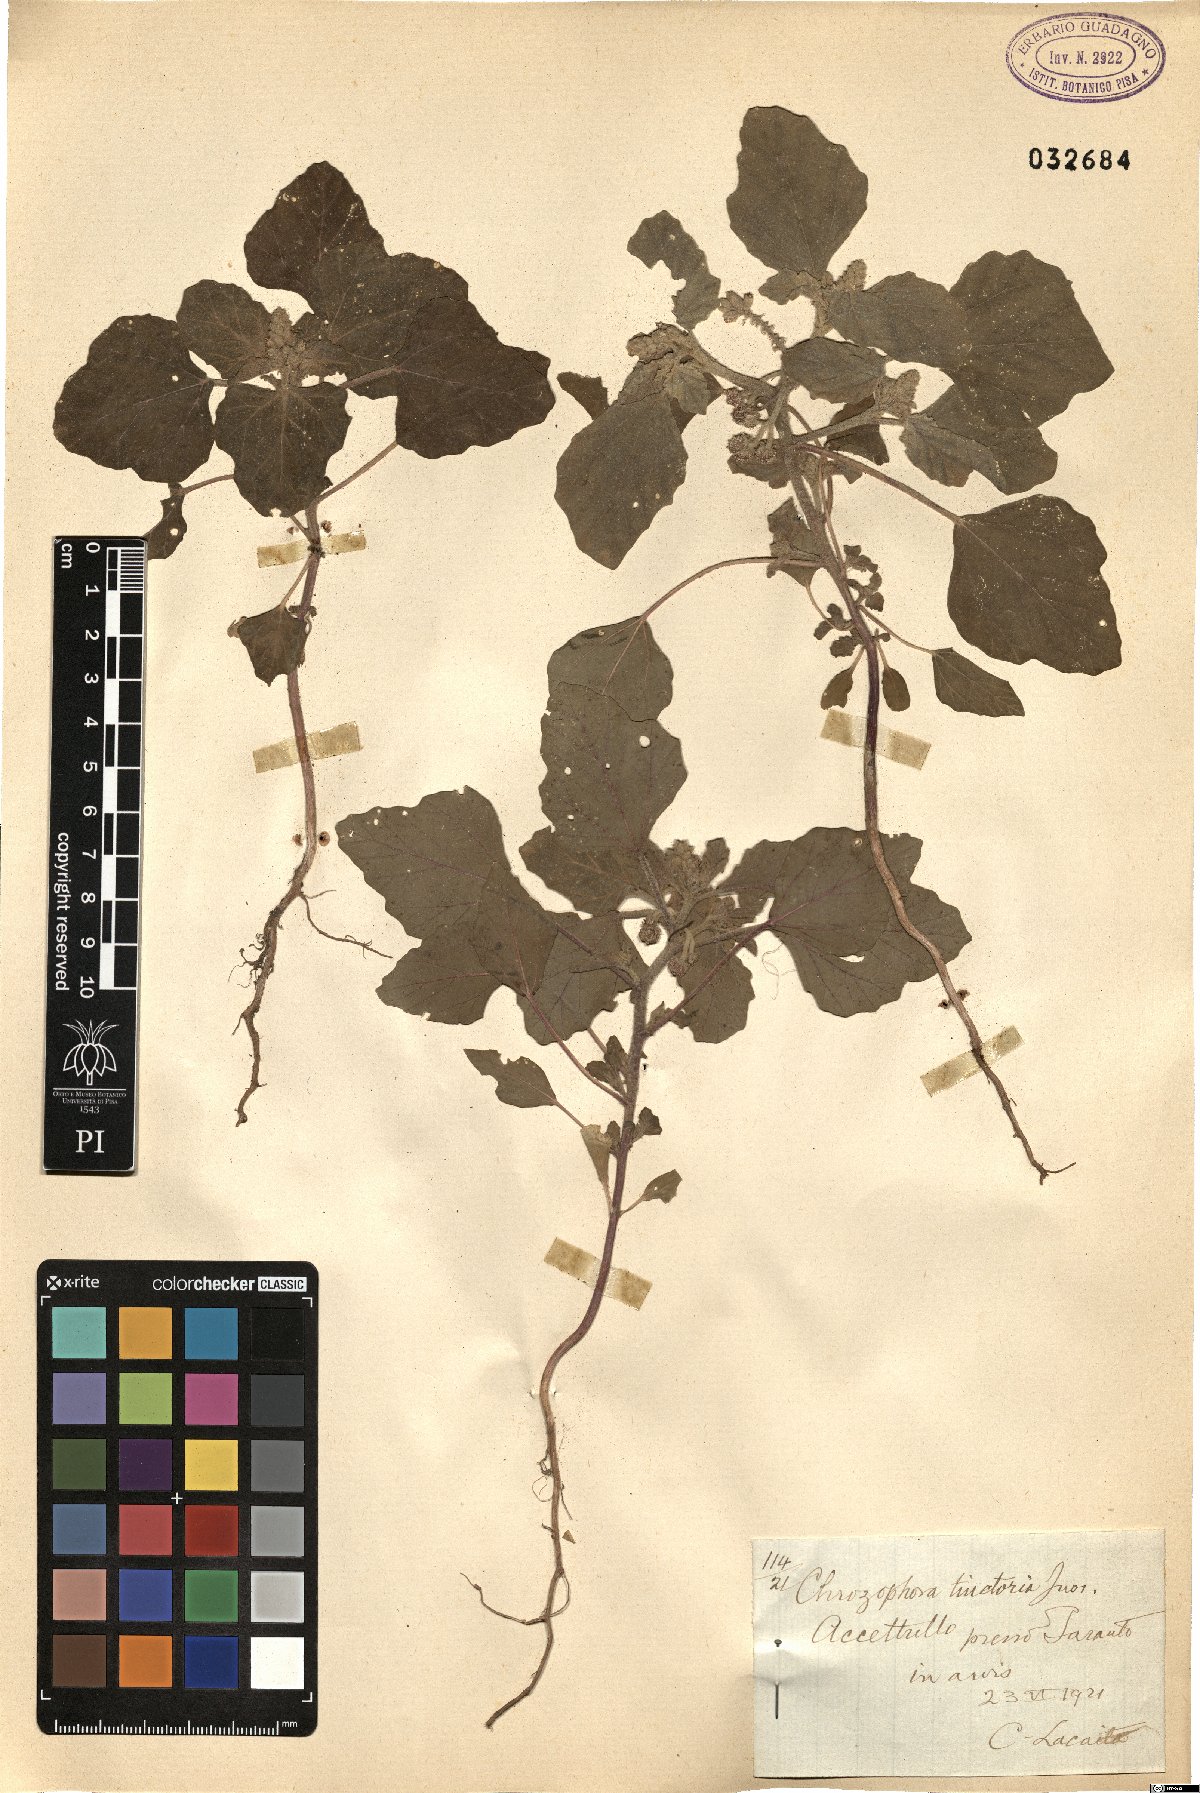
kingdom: Plantae
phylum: Tracheophyta
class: Magnoliopsida
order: Malpighiales
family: Euphorbiaceae
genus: Chrozophora
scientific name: Chrozophora tinctoria
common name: Dyer's litmus
